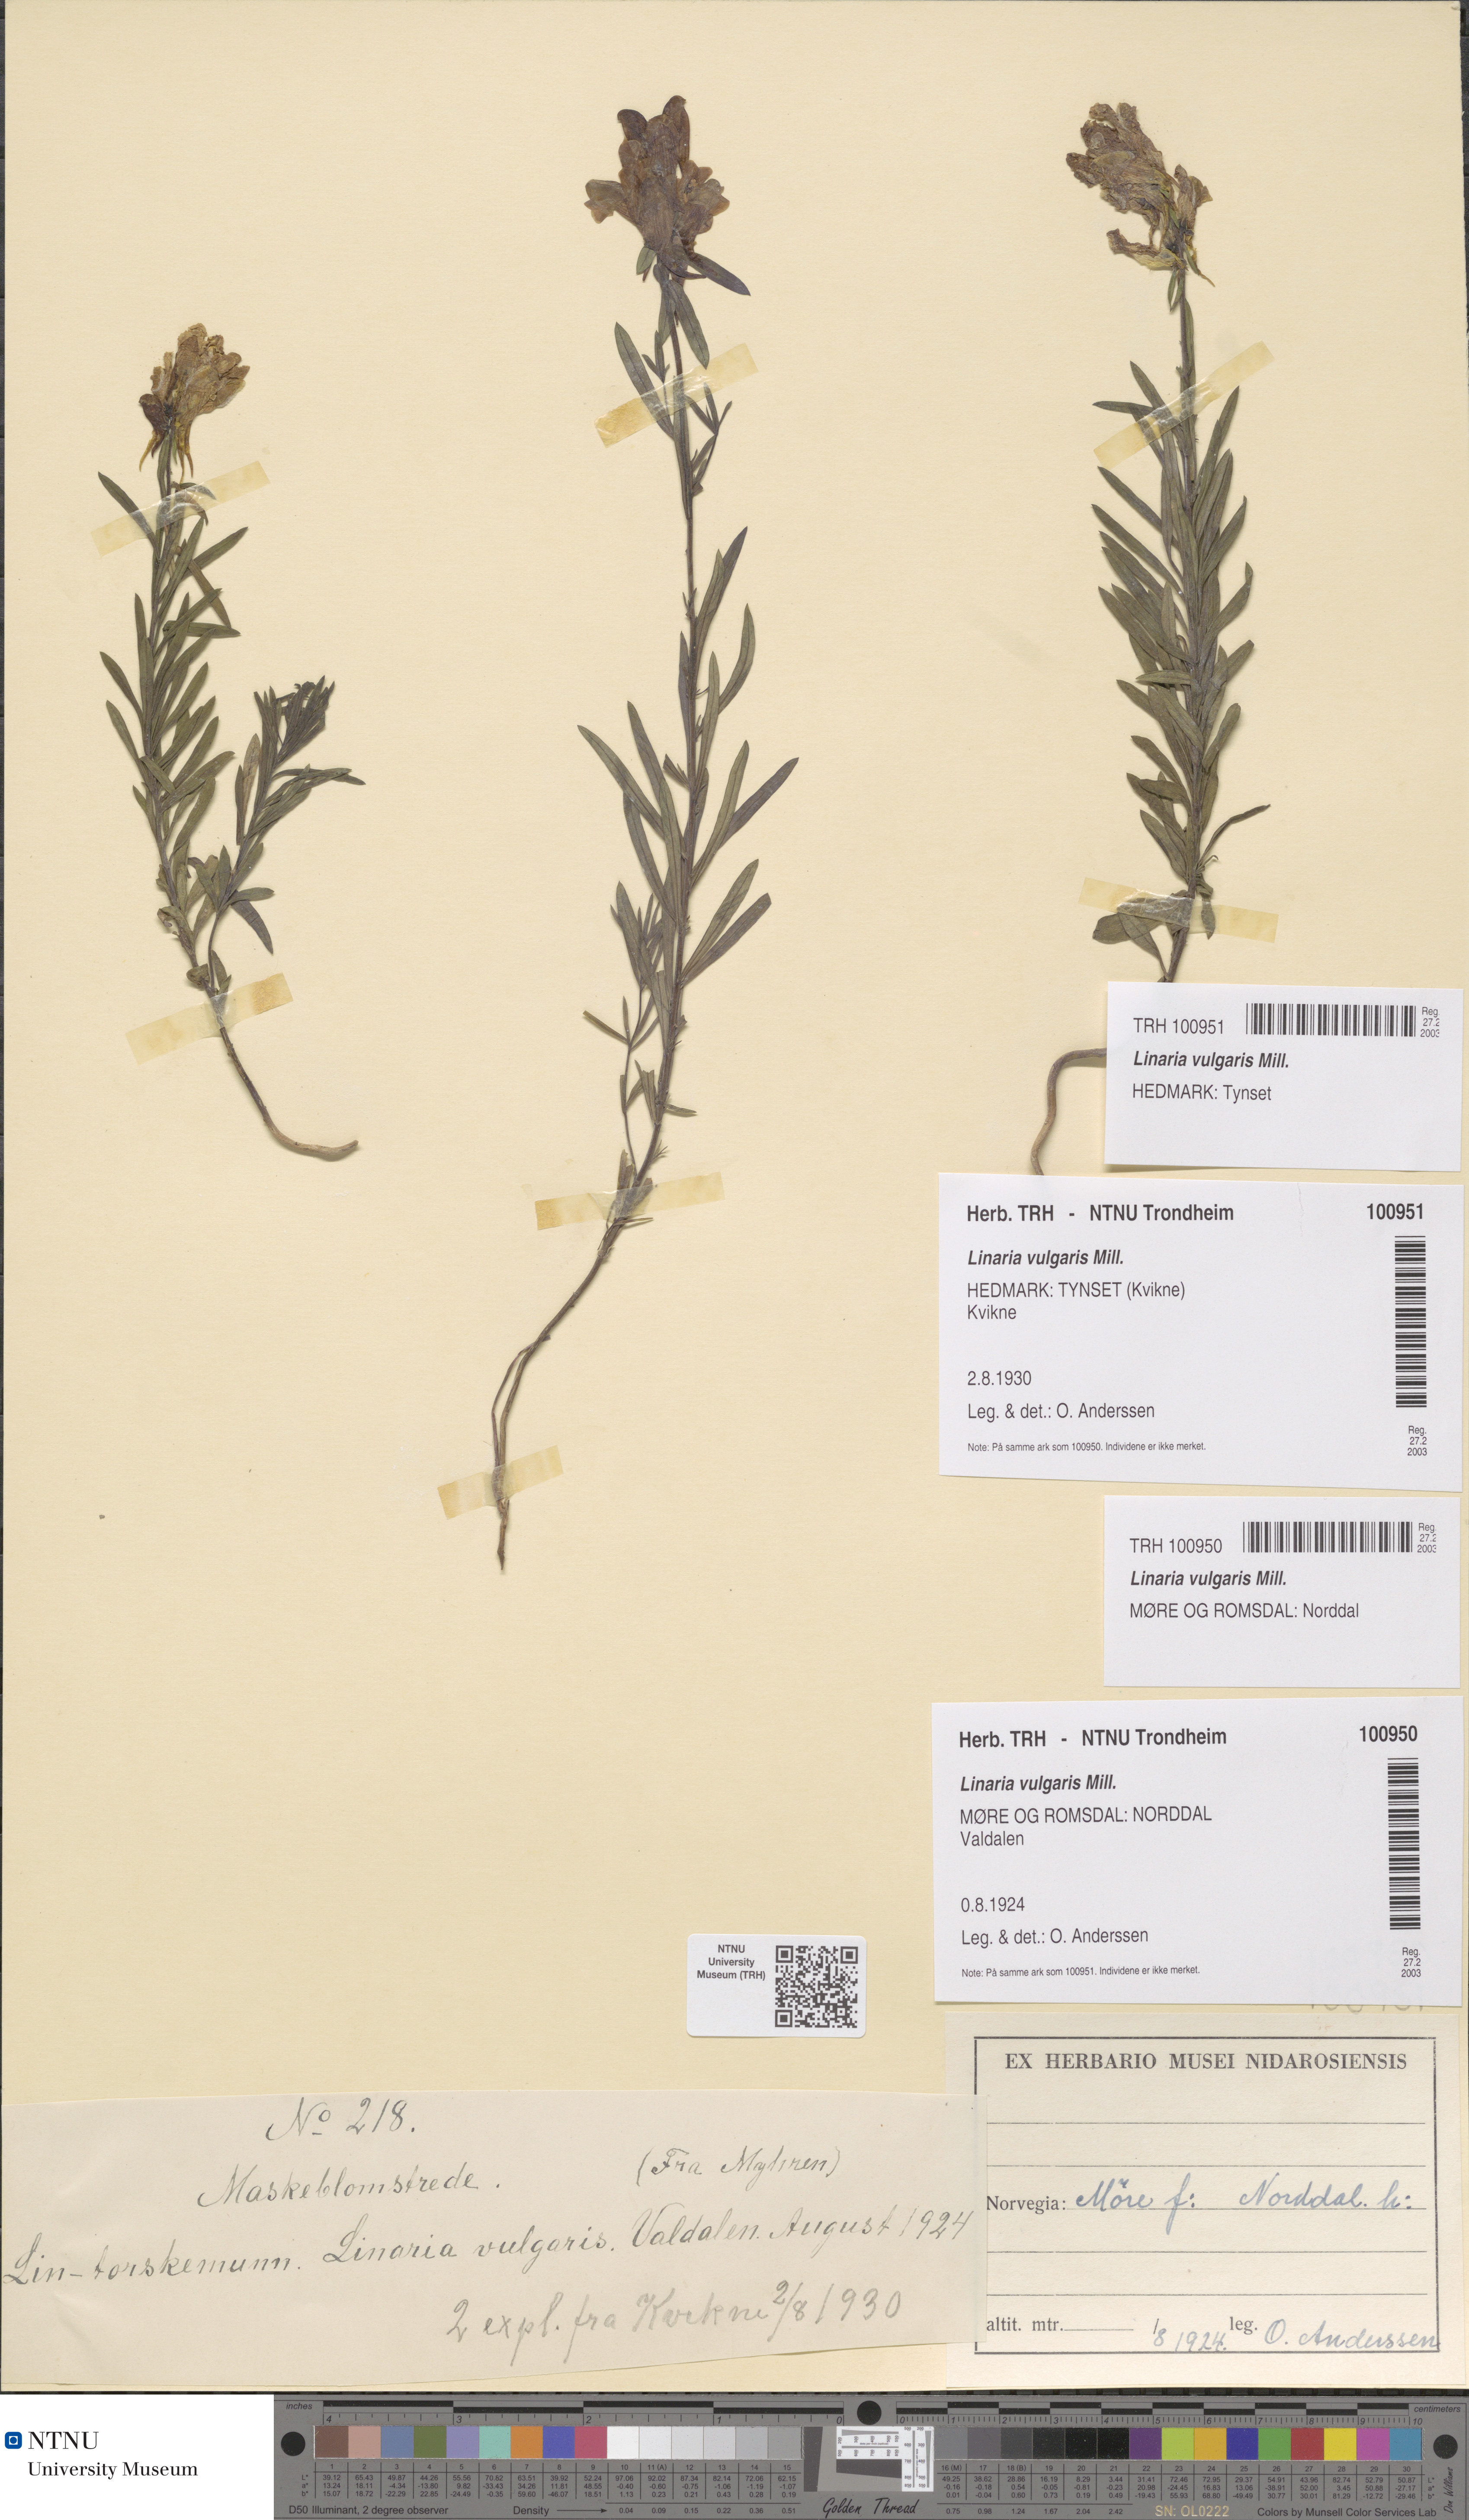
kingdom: Plantae
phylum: Tracheophyta
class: Magnoliopsida
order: Lamiales
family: Plantaginaceae
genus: Linaria
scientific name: Linaria vulgaris
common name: Butter and eggs
